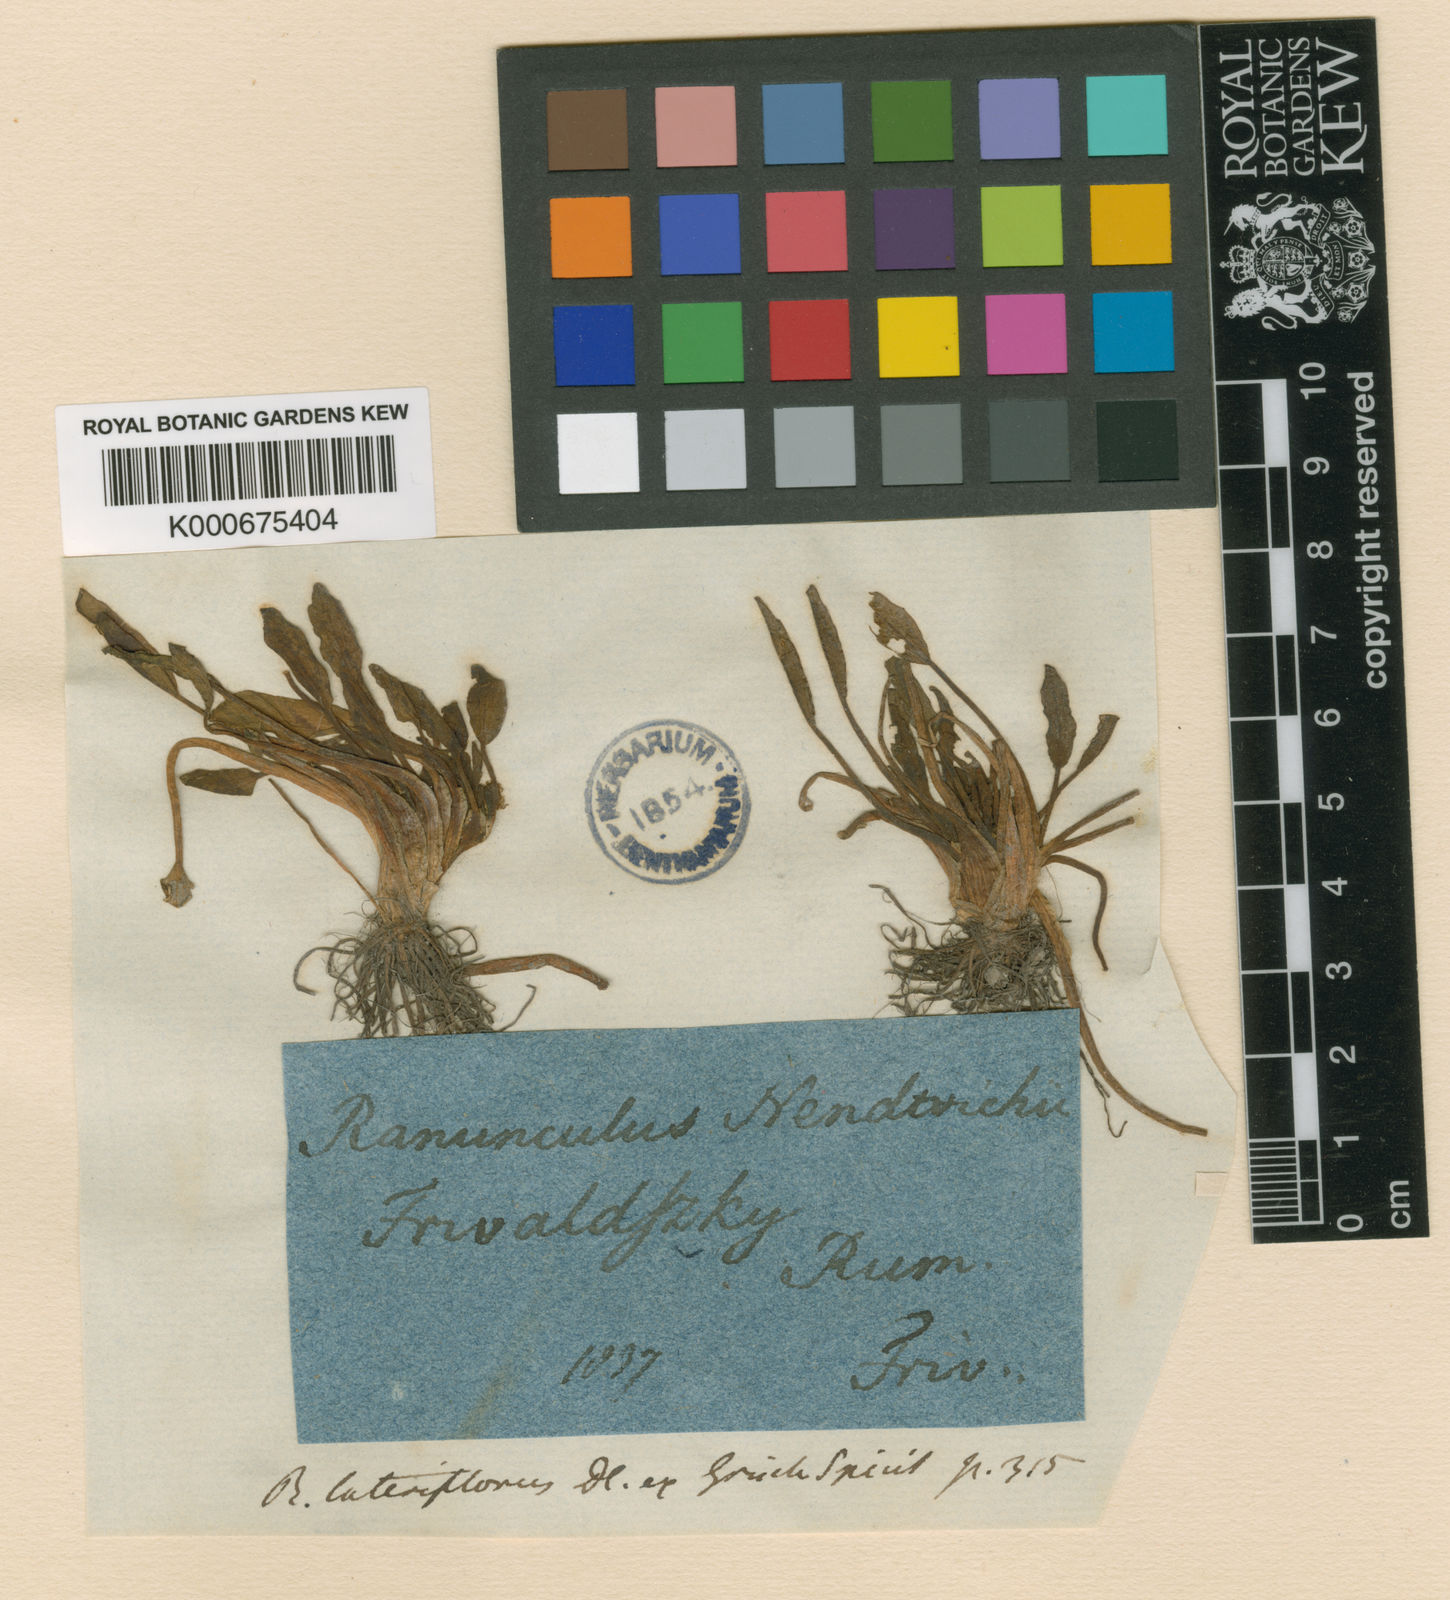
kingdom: Plantae
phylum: Tracheophyta
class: Magnoliopsida
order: Ranunculales
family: Ranunculaceae
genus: Ranunculus
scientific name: Ranunculus lateriflorus
